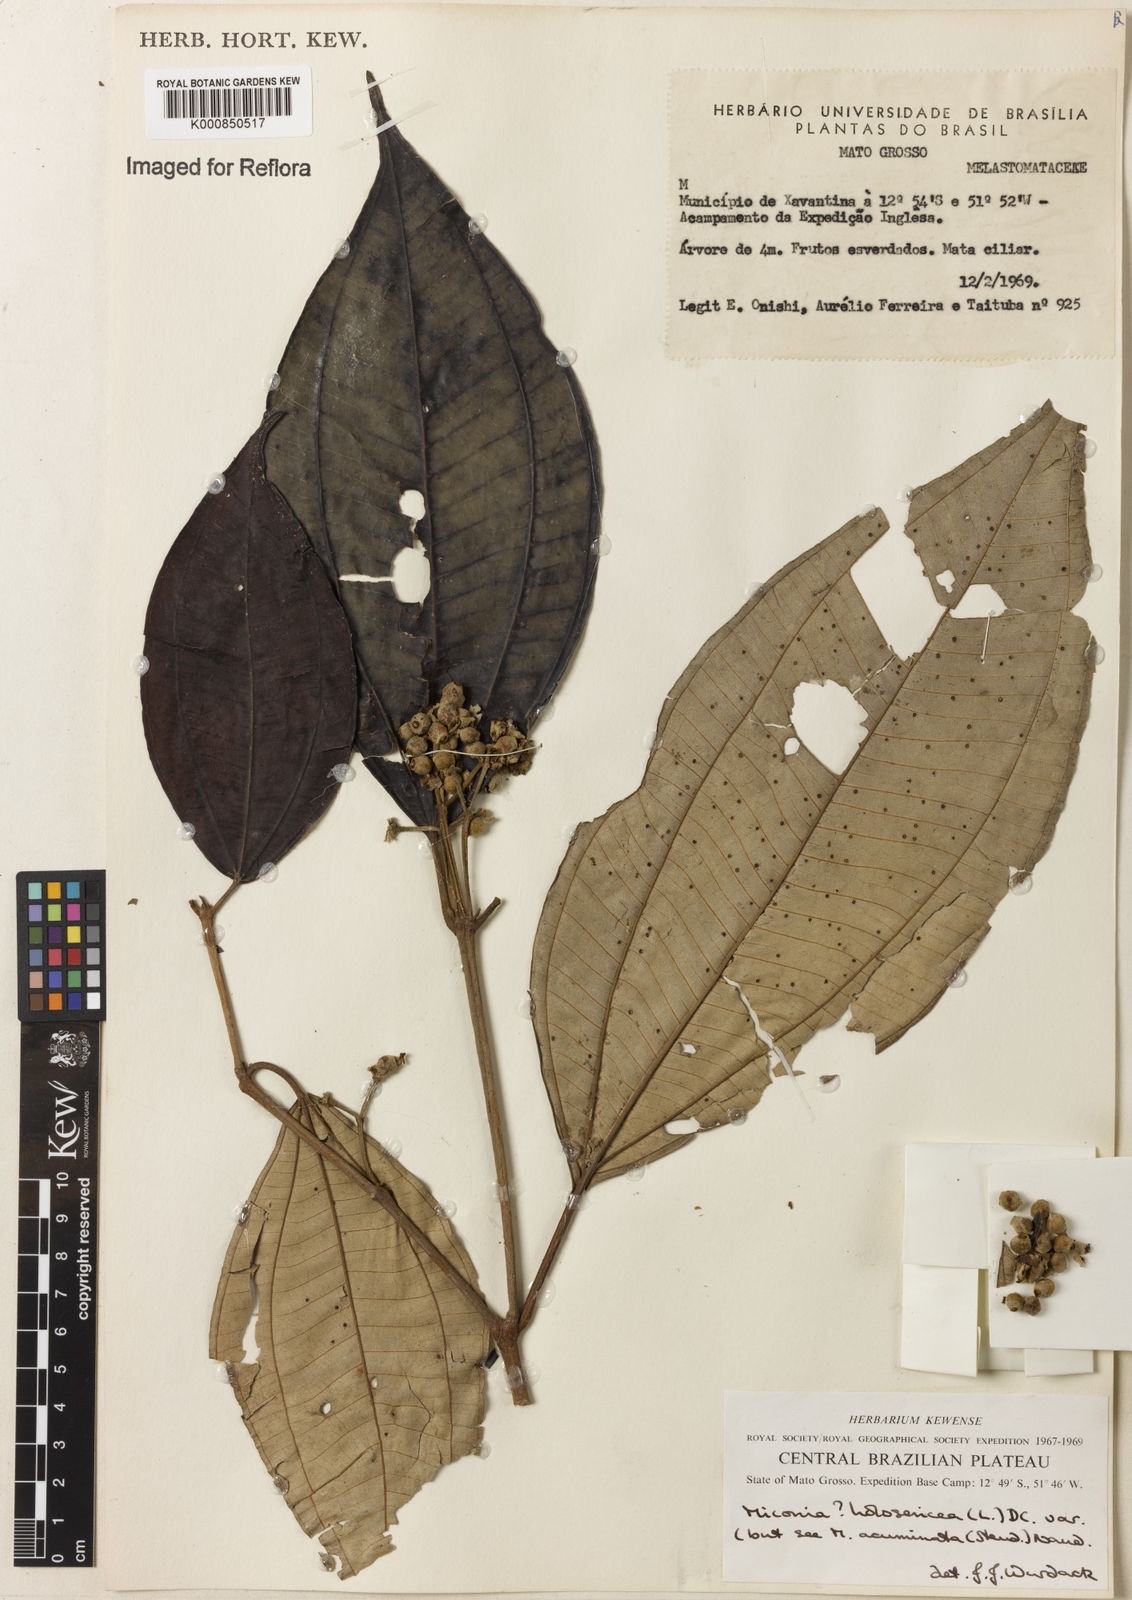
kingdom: Plantae
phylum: Tracheophyta
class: Magnoliopsida
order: Myrtales
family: Melastomataceae
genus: Miconia
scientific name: Miconia
